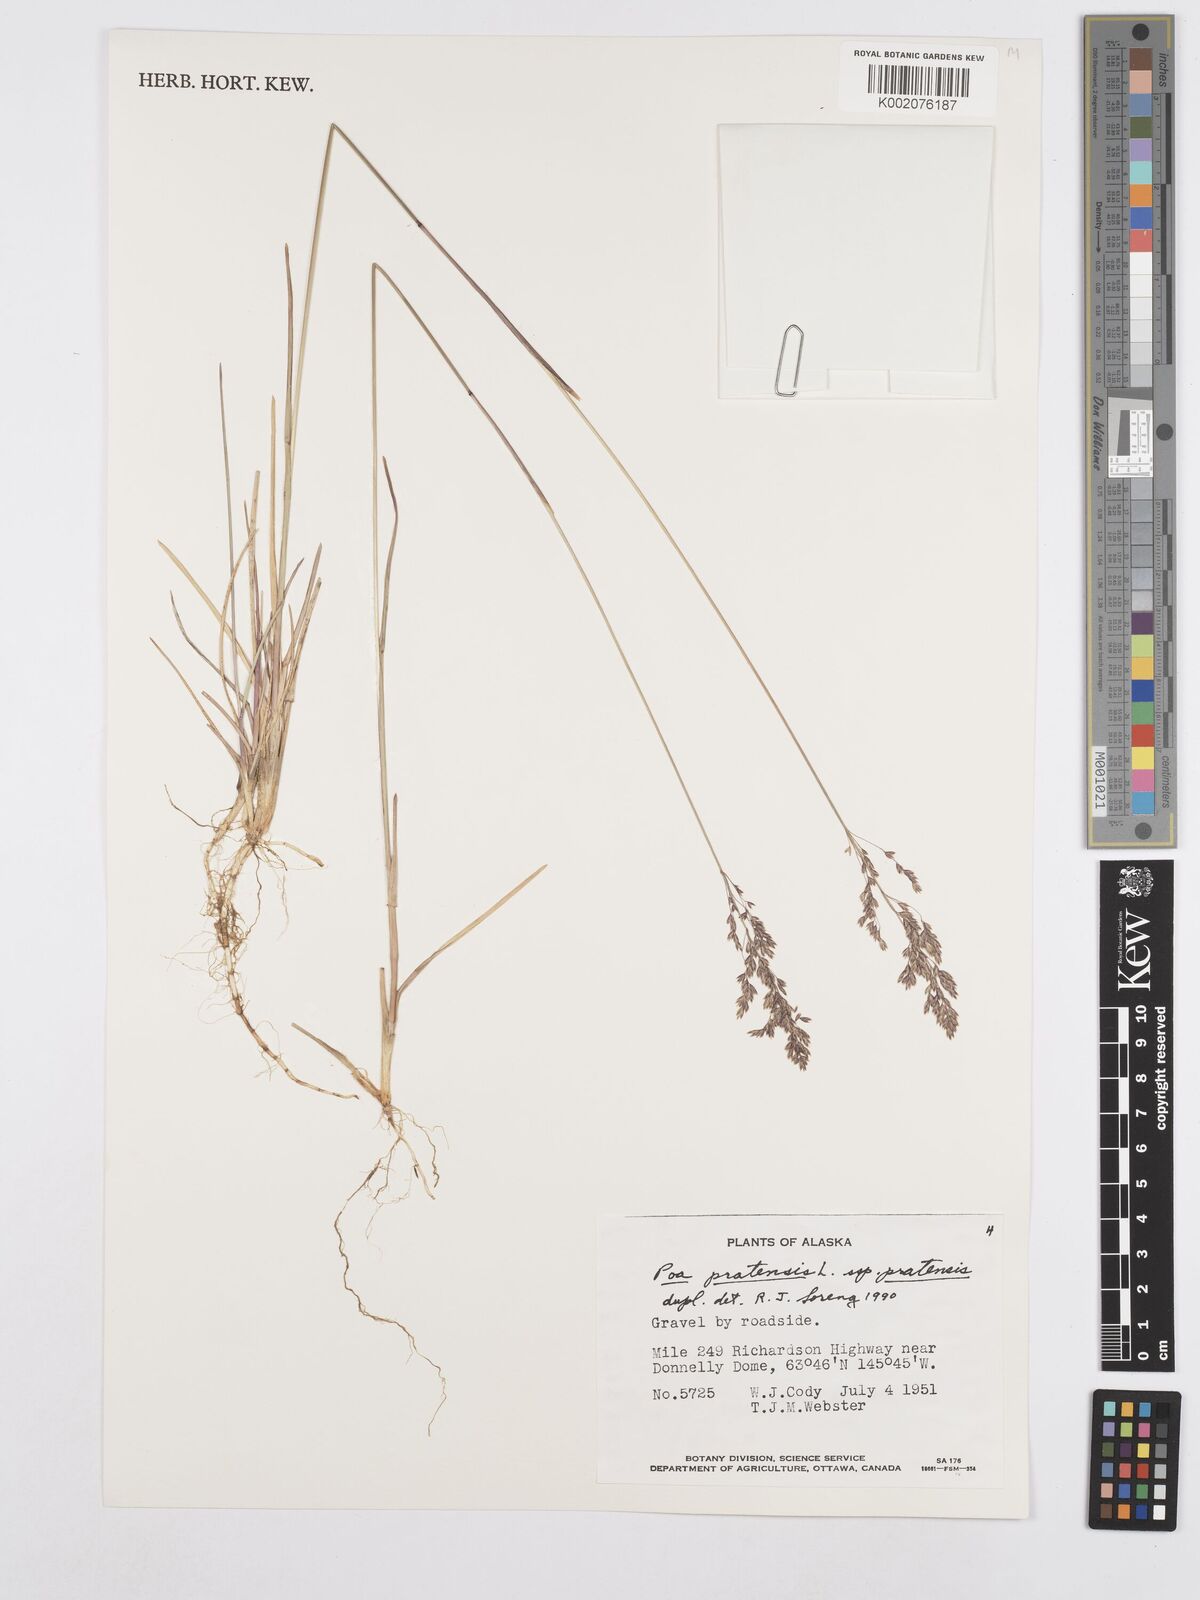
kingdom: Plantae
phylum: Tracheophyta
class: Liliopsida
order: Poales
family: Poaceae
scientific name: Poaceae
